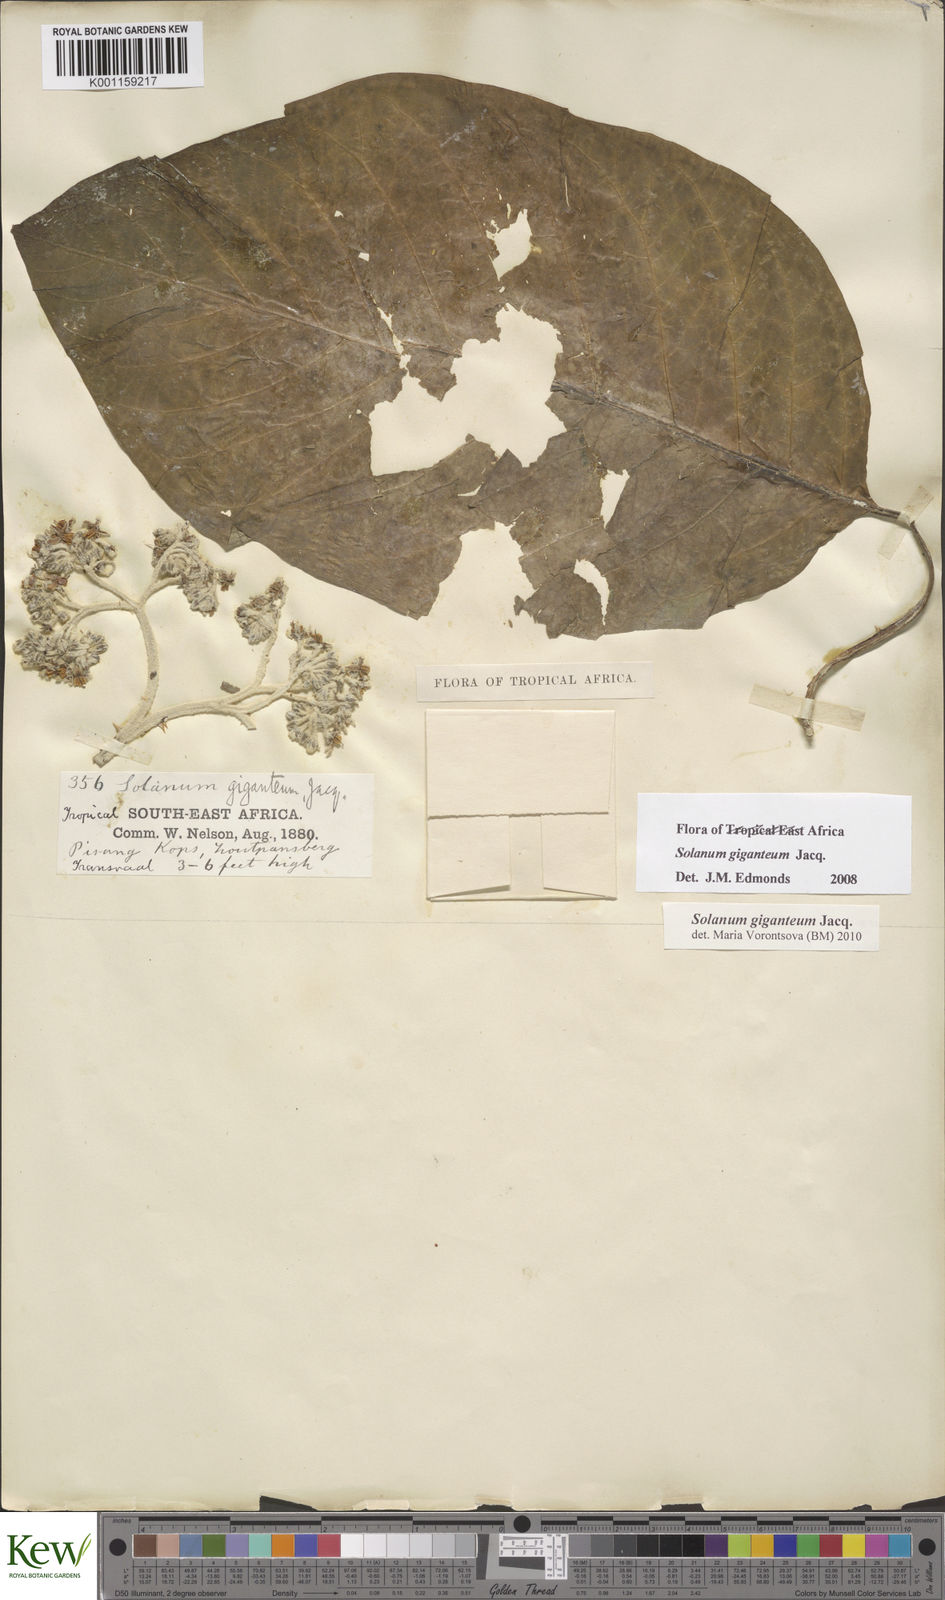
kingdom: Plantae
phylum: Tracheophyta
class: Magnoliopsida
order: Solanales
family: Solanaceae
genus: Solanum
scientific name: Solanum giganteum
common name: Healing-leaf-tree
